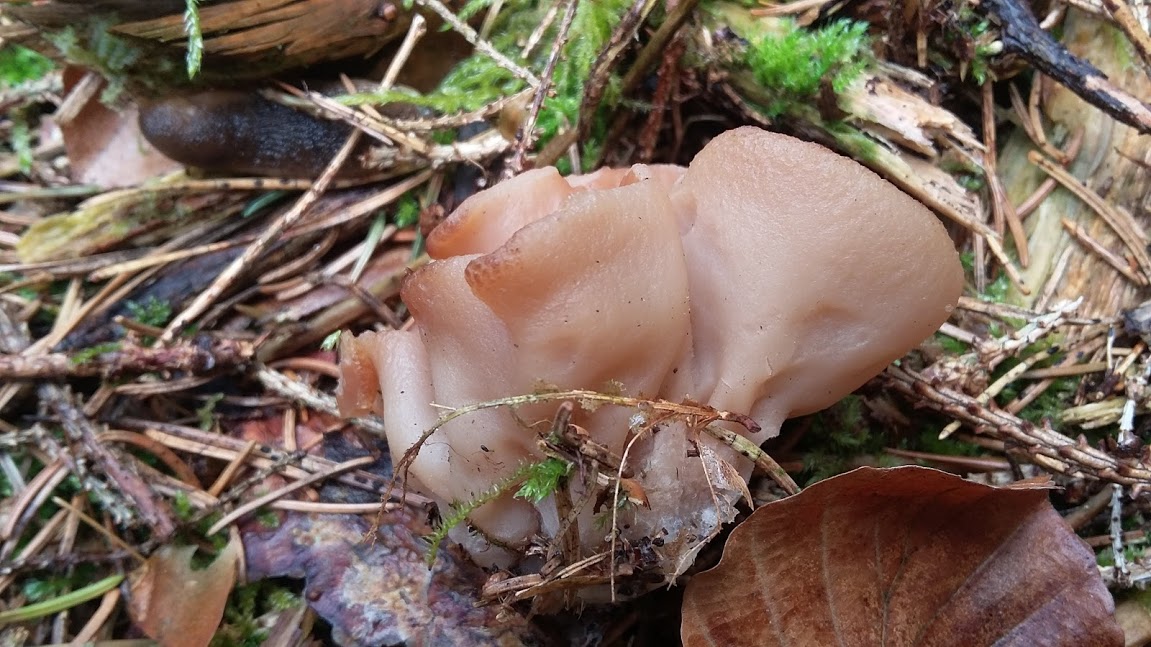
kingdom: Fungi
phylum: Ascomycota
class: Pezizomycetes
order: Pezizales
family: Discinaceae
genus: Discina
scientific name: Discina ancilis
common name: udbredt stenmorkel
